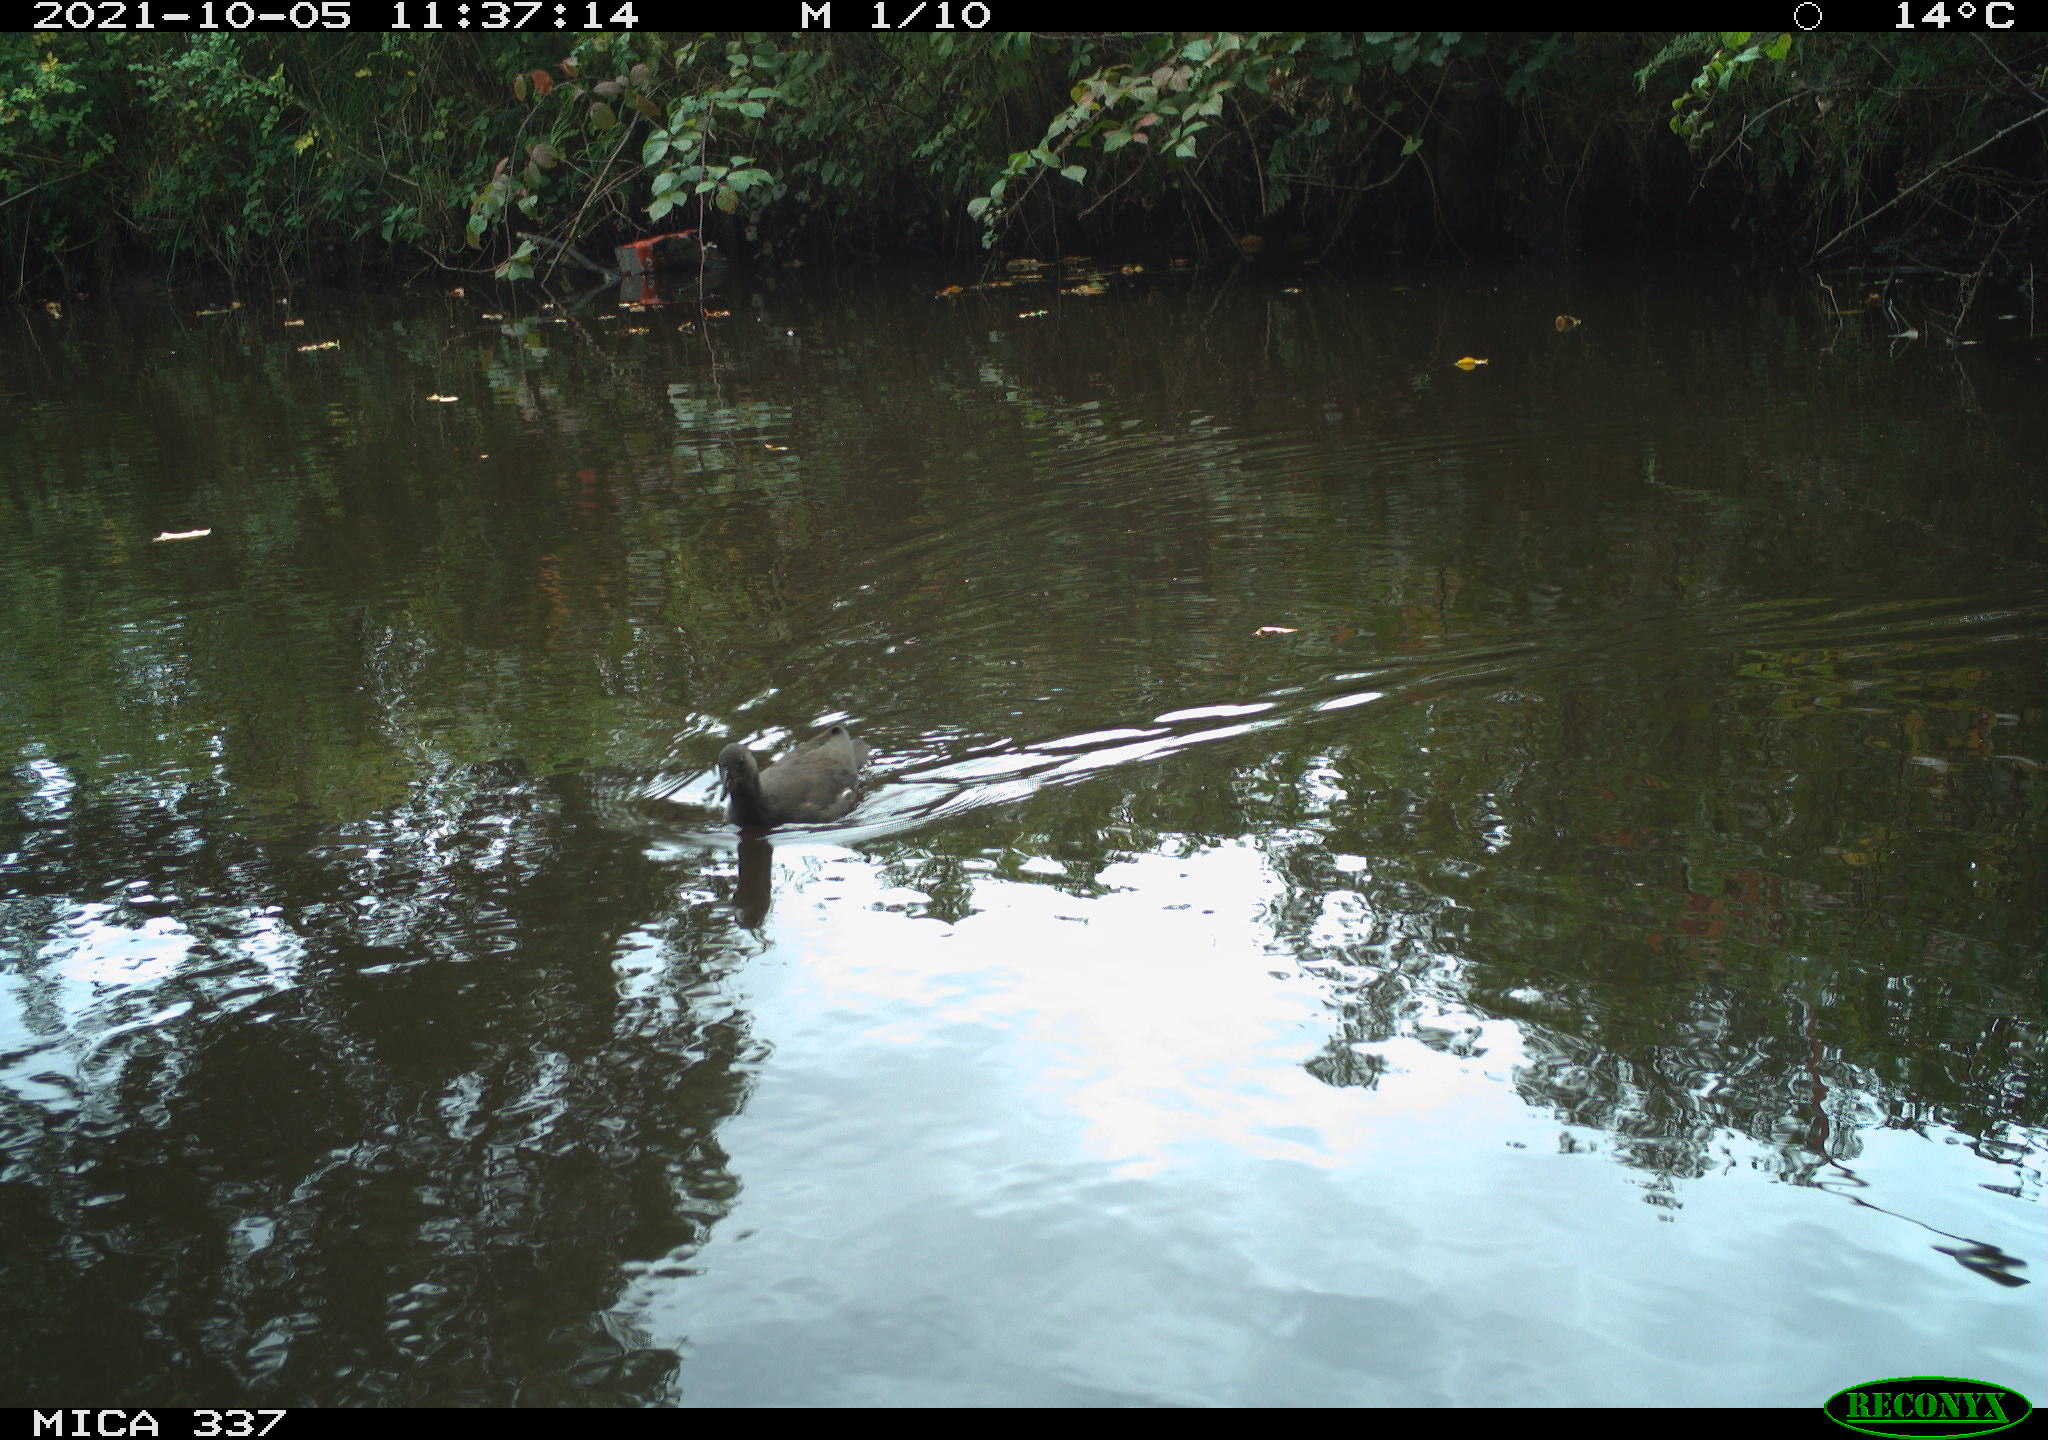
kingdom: Animalia
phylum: Chordata
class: Aves
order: Gruiformes
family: Rallidae
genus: Gallinula
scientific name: Gallinula chloropus
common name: Common moorhen
